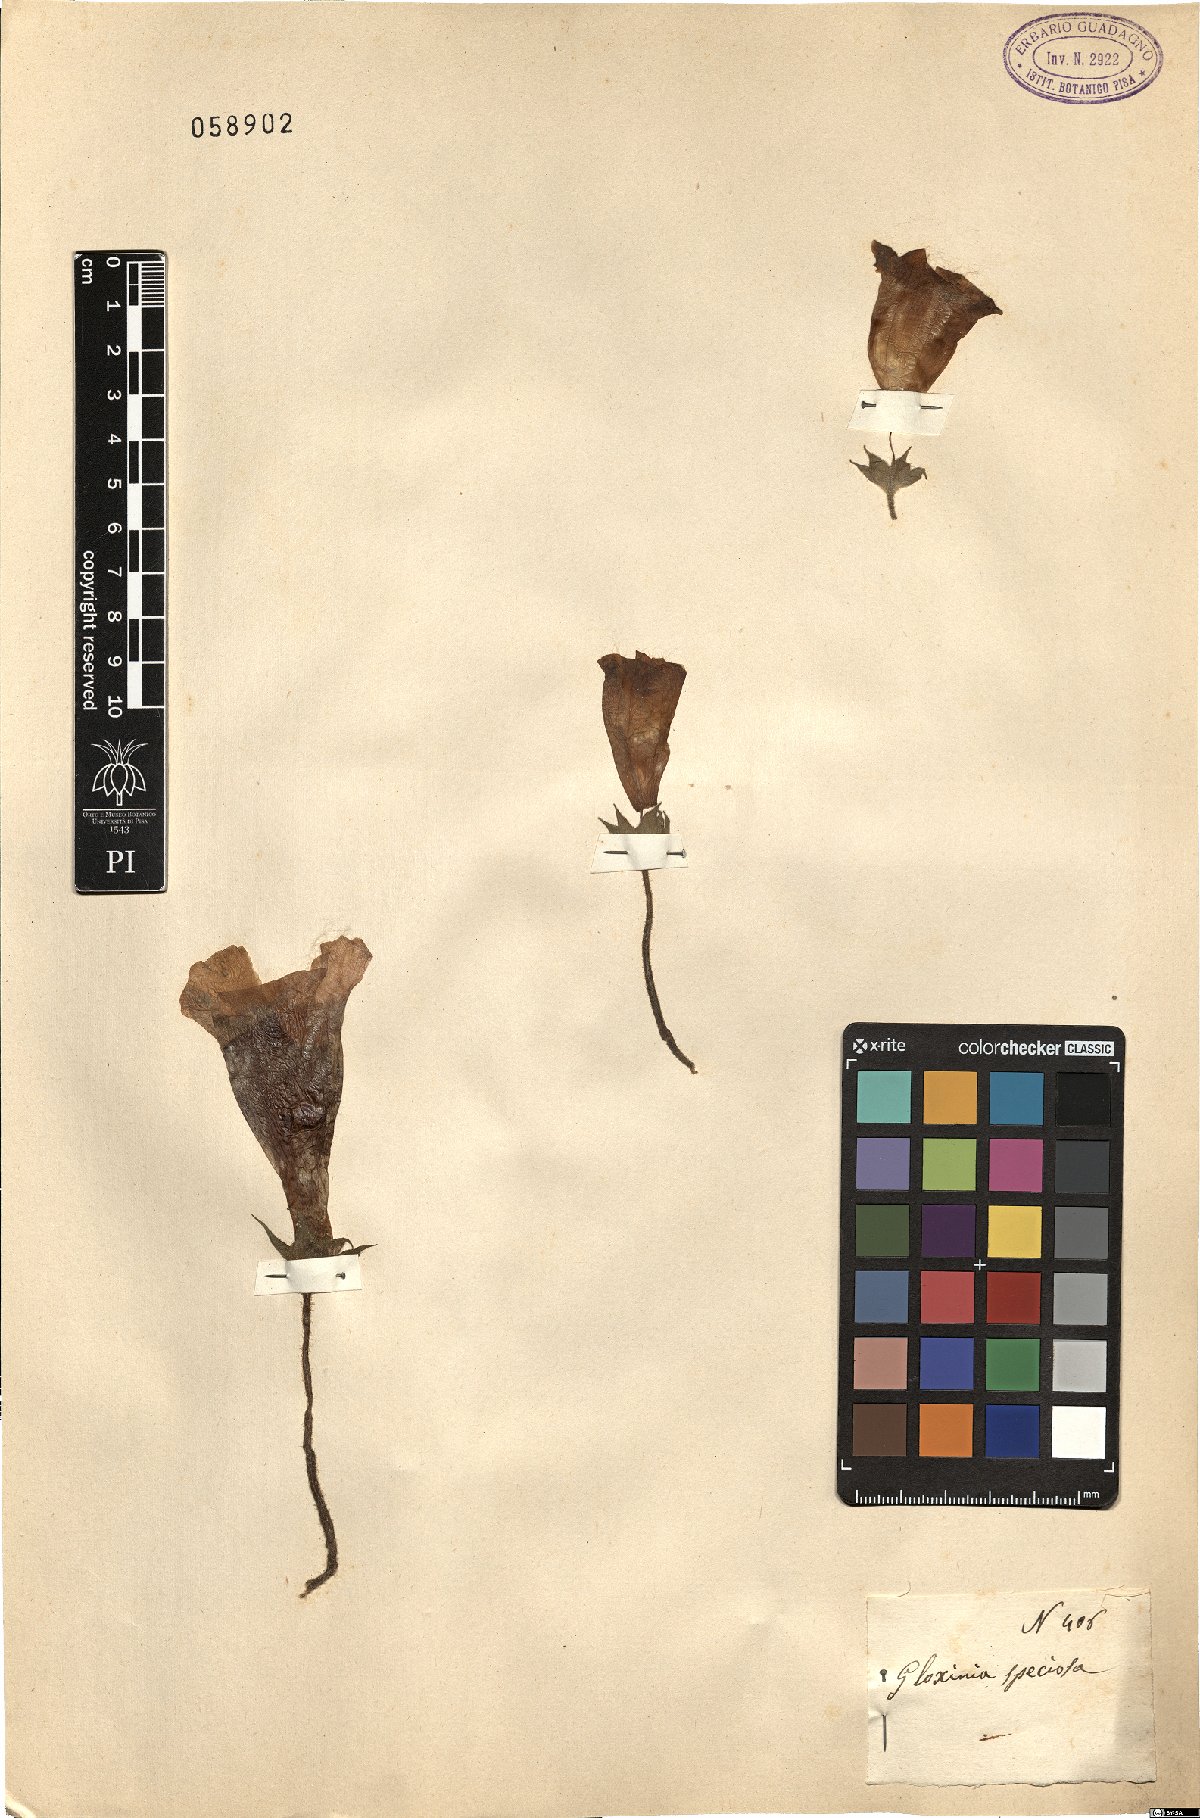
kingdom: Plantae
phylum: Tracheophyta
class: Magnoliopsida
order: Lamiales
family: Gesneriaceae
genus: Sinningia
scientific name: Sinningia speciosa
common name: Brazilian gloxinia
